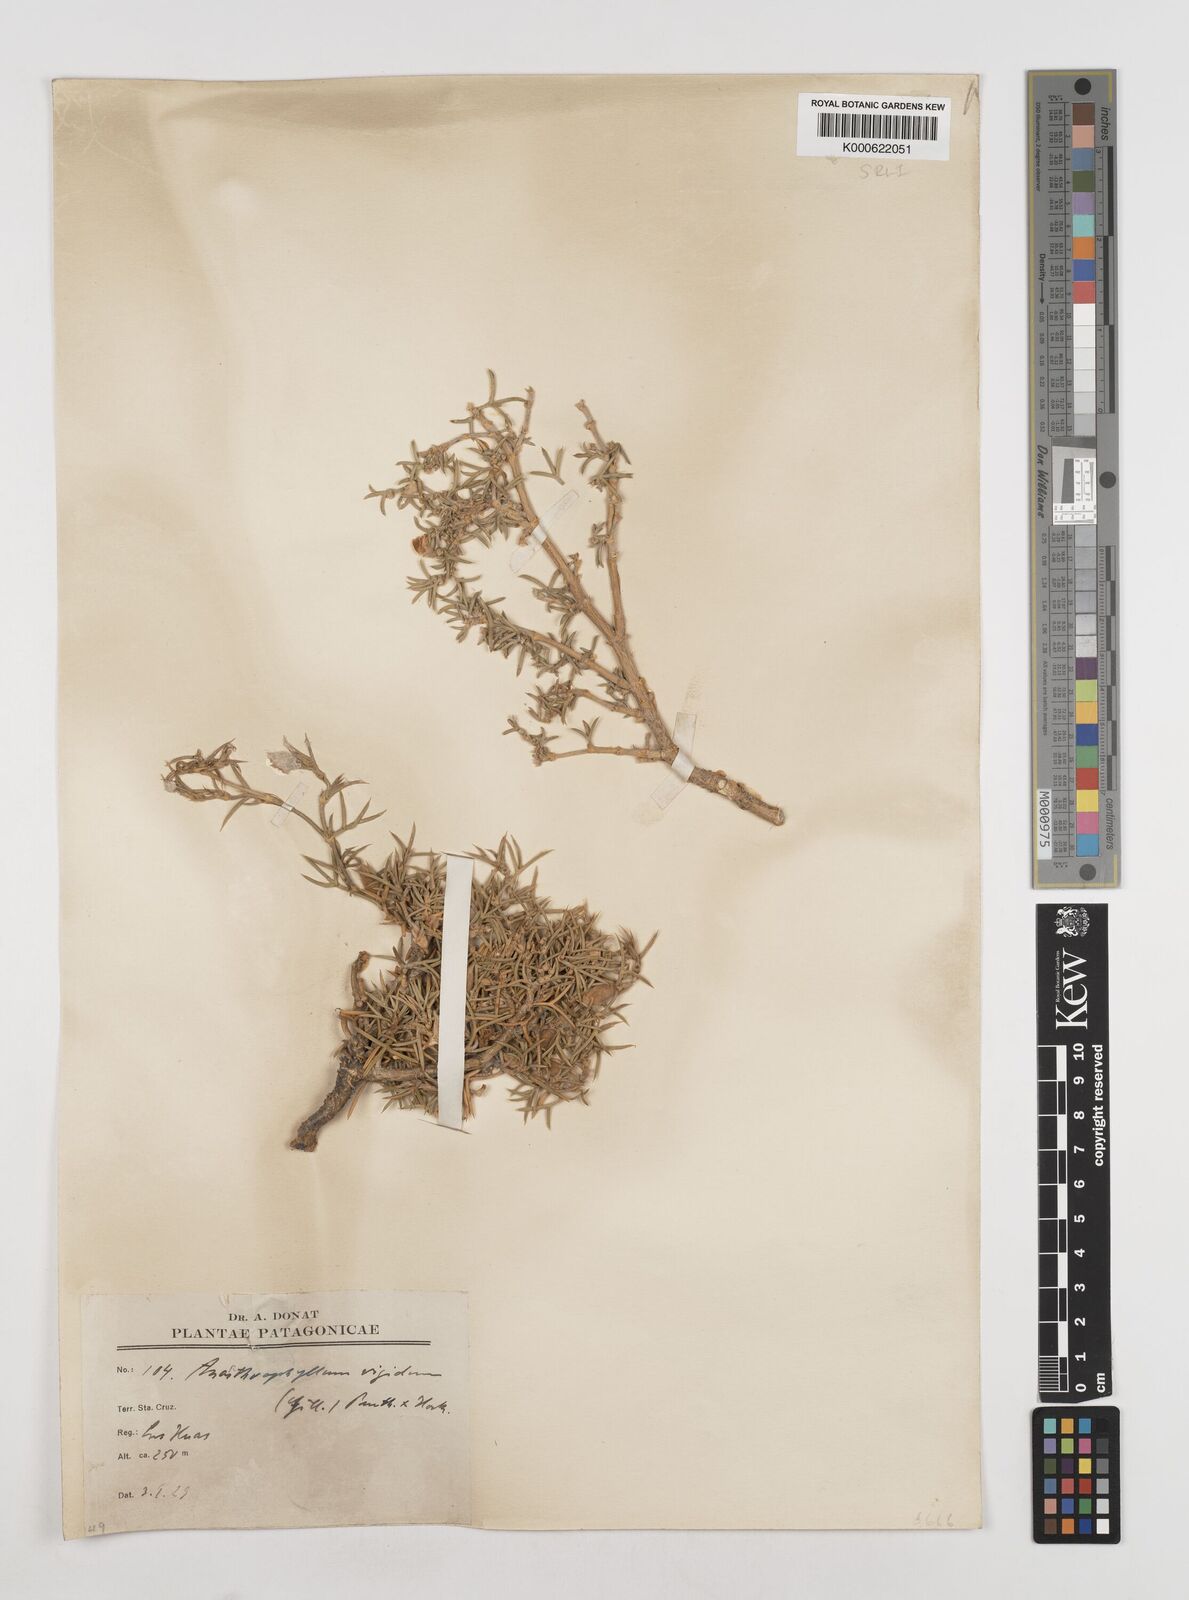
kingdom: Plantae
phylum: Tracheophyta
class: Magnoliopsida
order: Fabales
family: Fabaceae
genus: Anarthrophyllum
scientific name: Anarthrophyllum rigidum
